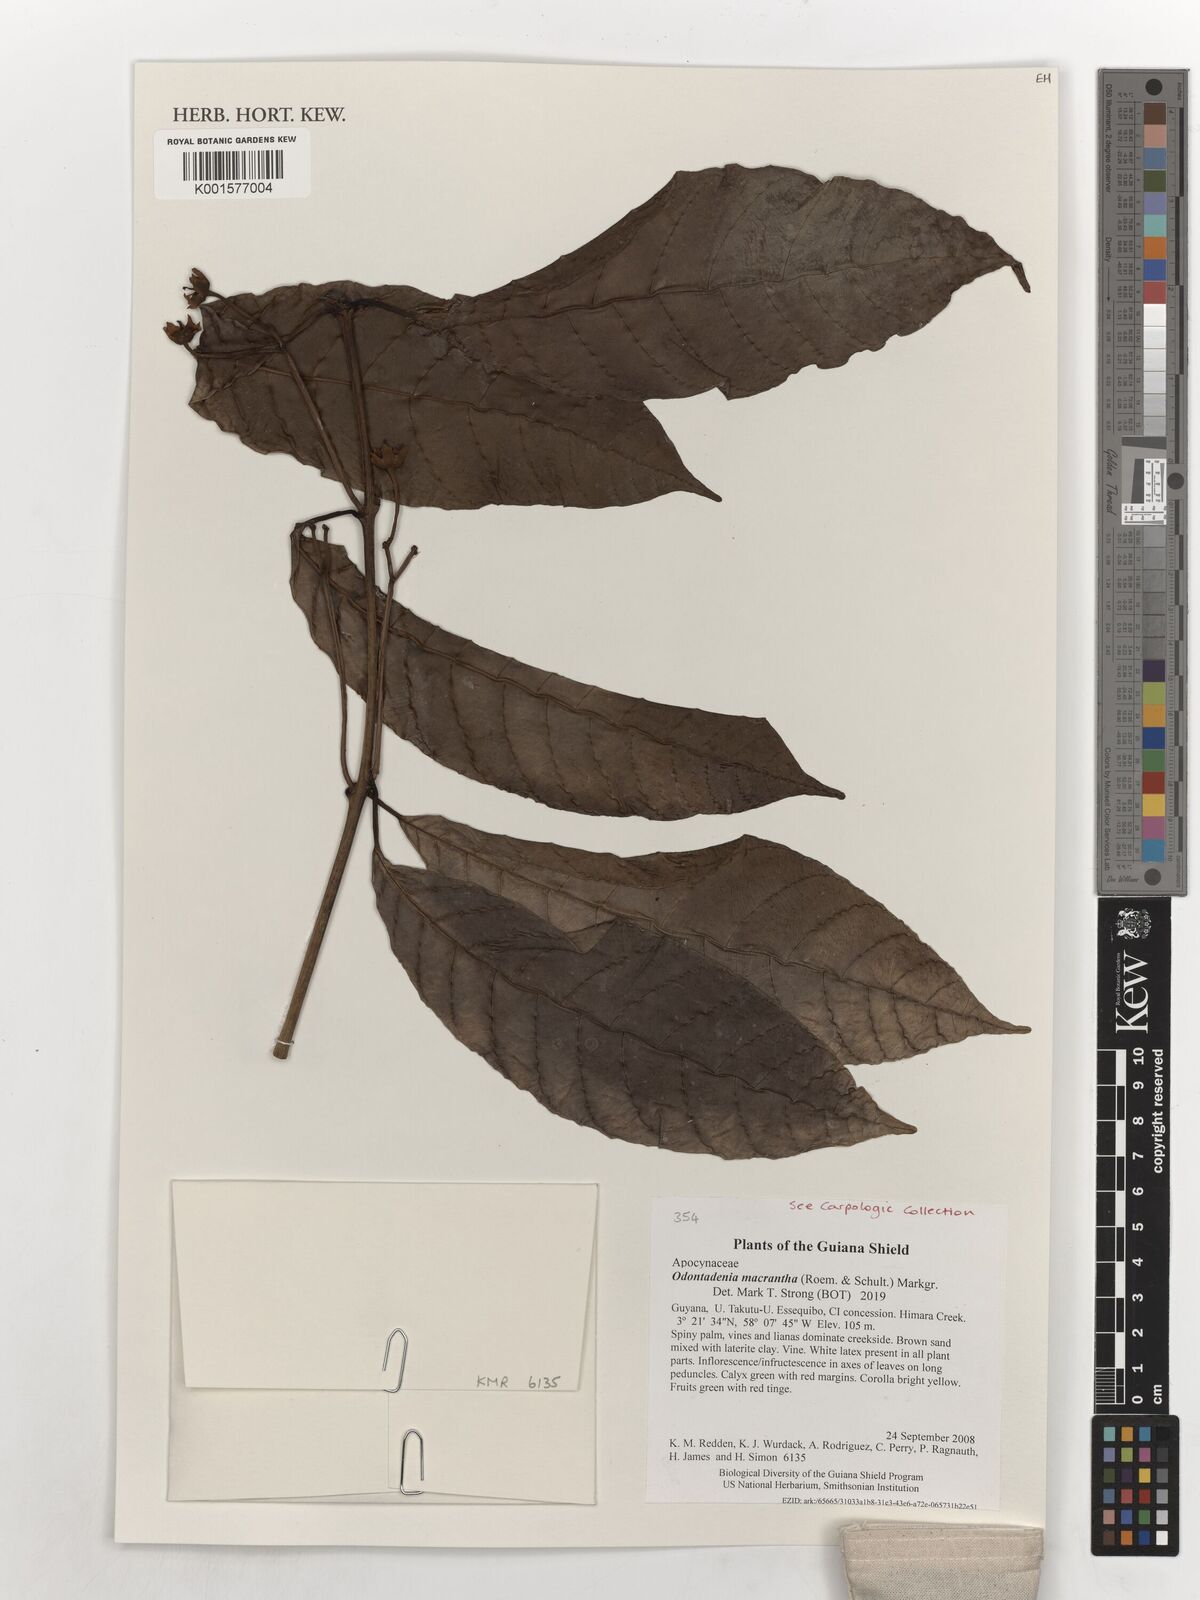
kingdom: Plantae
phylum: Tracheophyta
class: Magnoliopsida
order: Gentianales
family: Apocynaceae
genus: Odontadenia
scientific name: Odontadenia semidigyna
